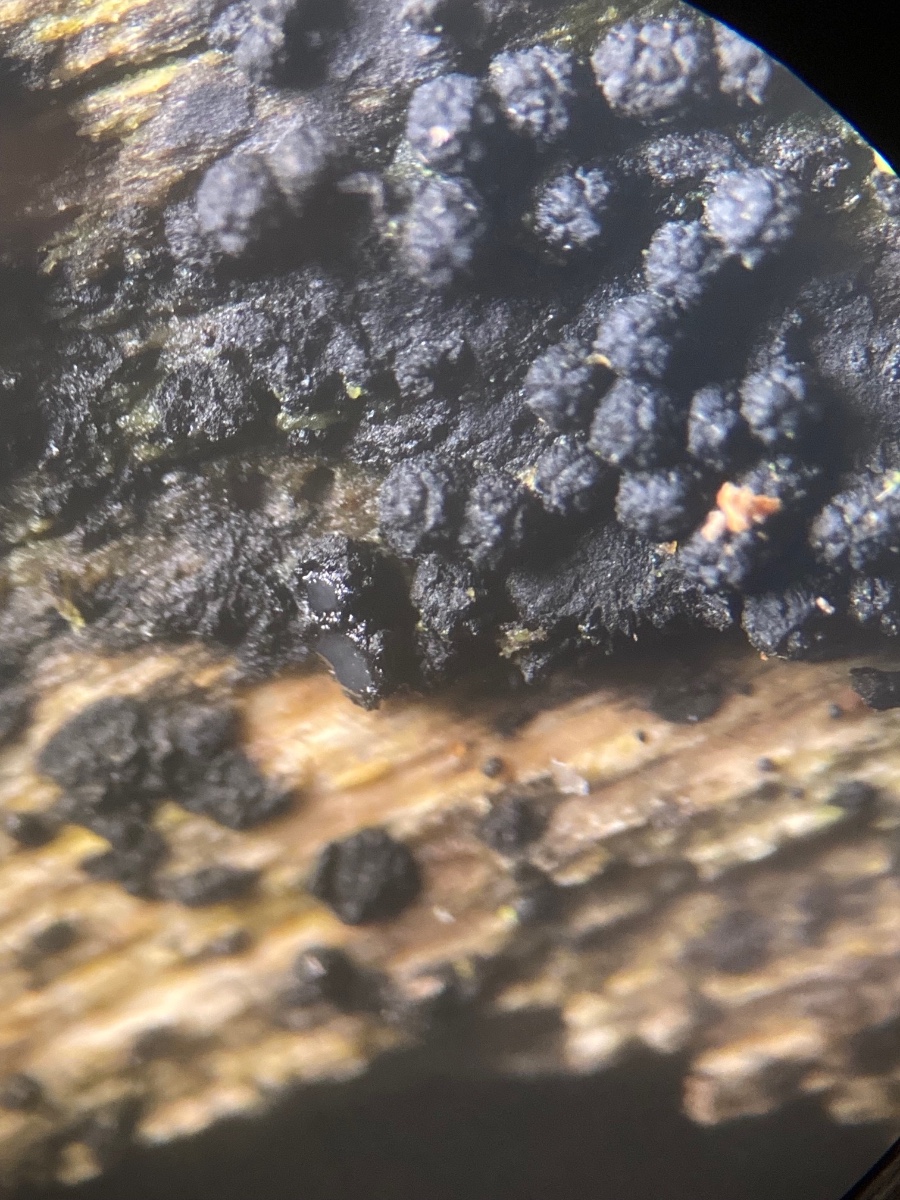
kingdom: Fungi
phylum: Ascomycota
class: Sordariomycetes
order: Coronophorales
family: Bertiaceae
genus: Bertia
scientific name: Bertia moriformis
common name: almindelig morbærkerne
